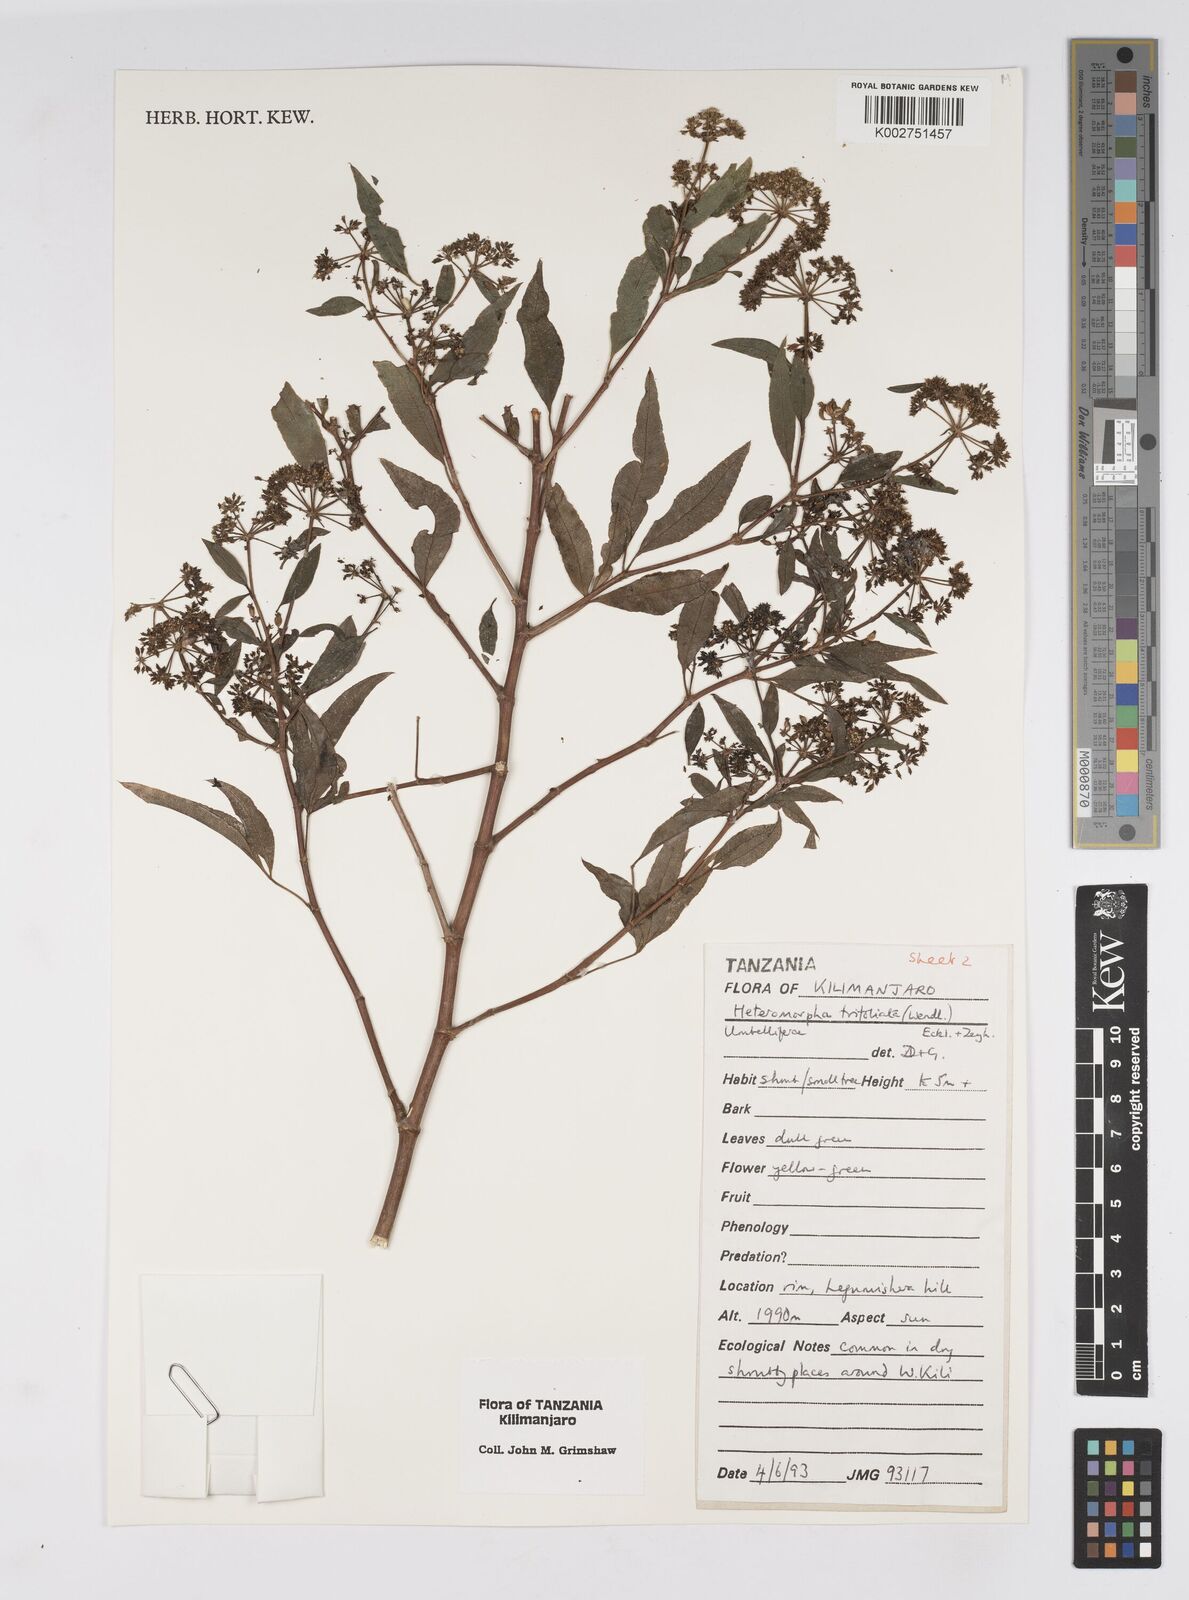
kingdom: Plantae
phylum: Tracheophyta
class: Magnoliopsida
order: Apiales
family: Apiaceae
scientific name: Apiaceae
